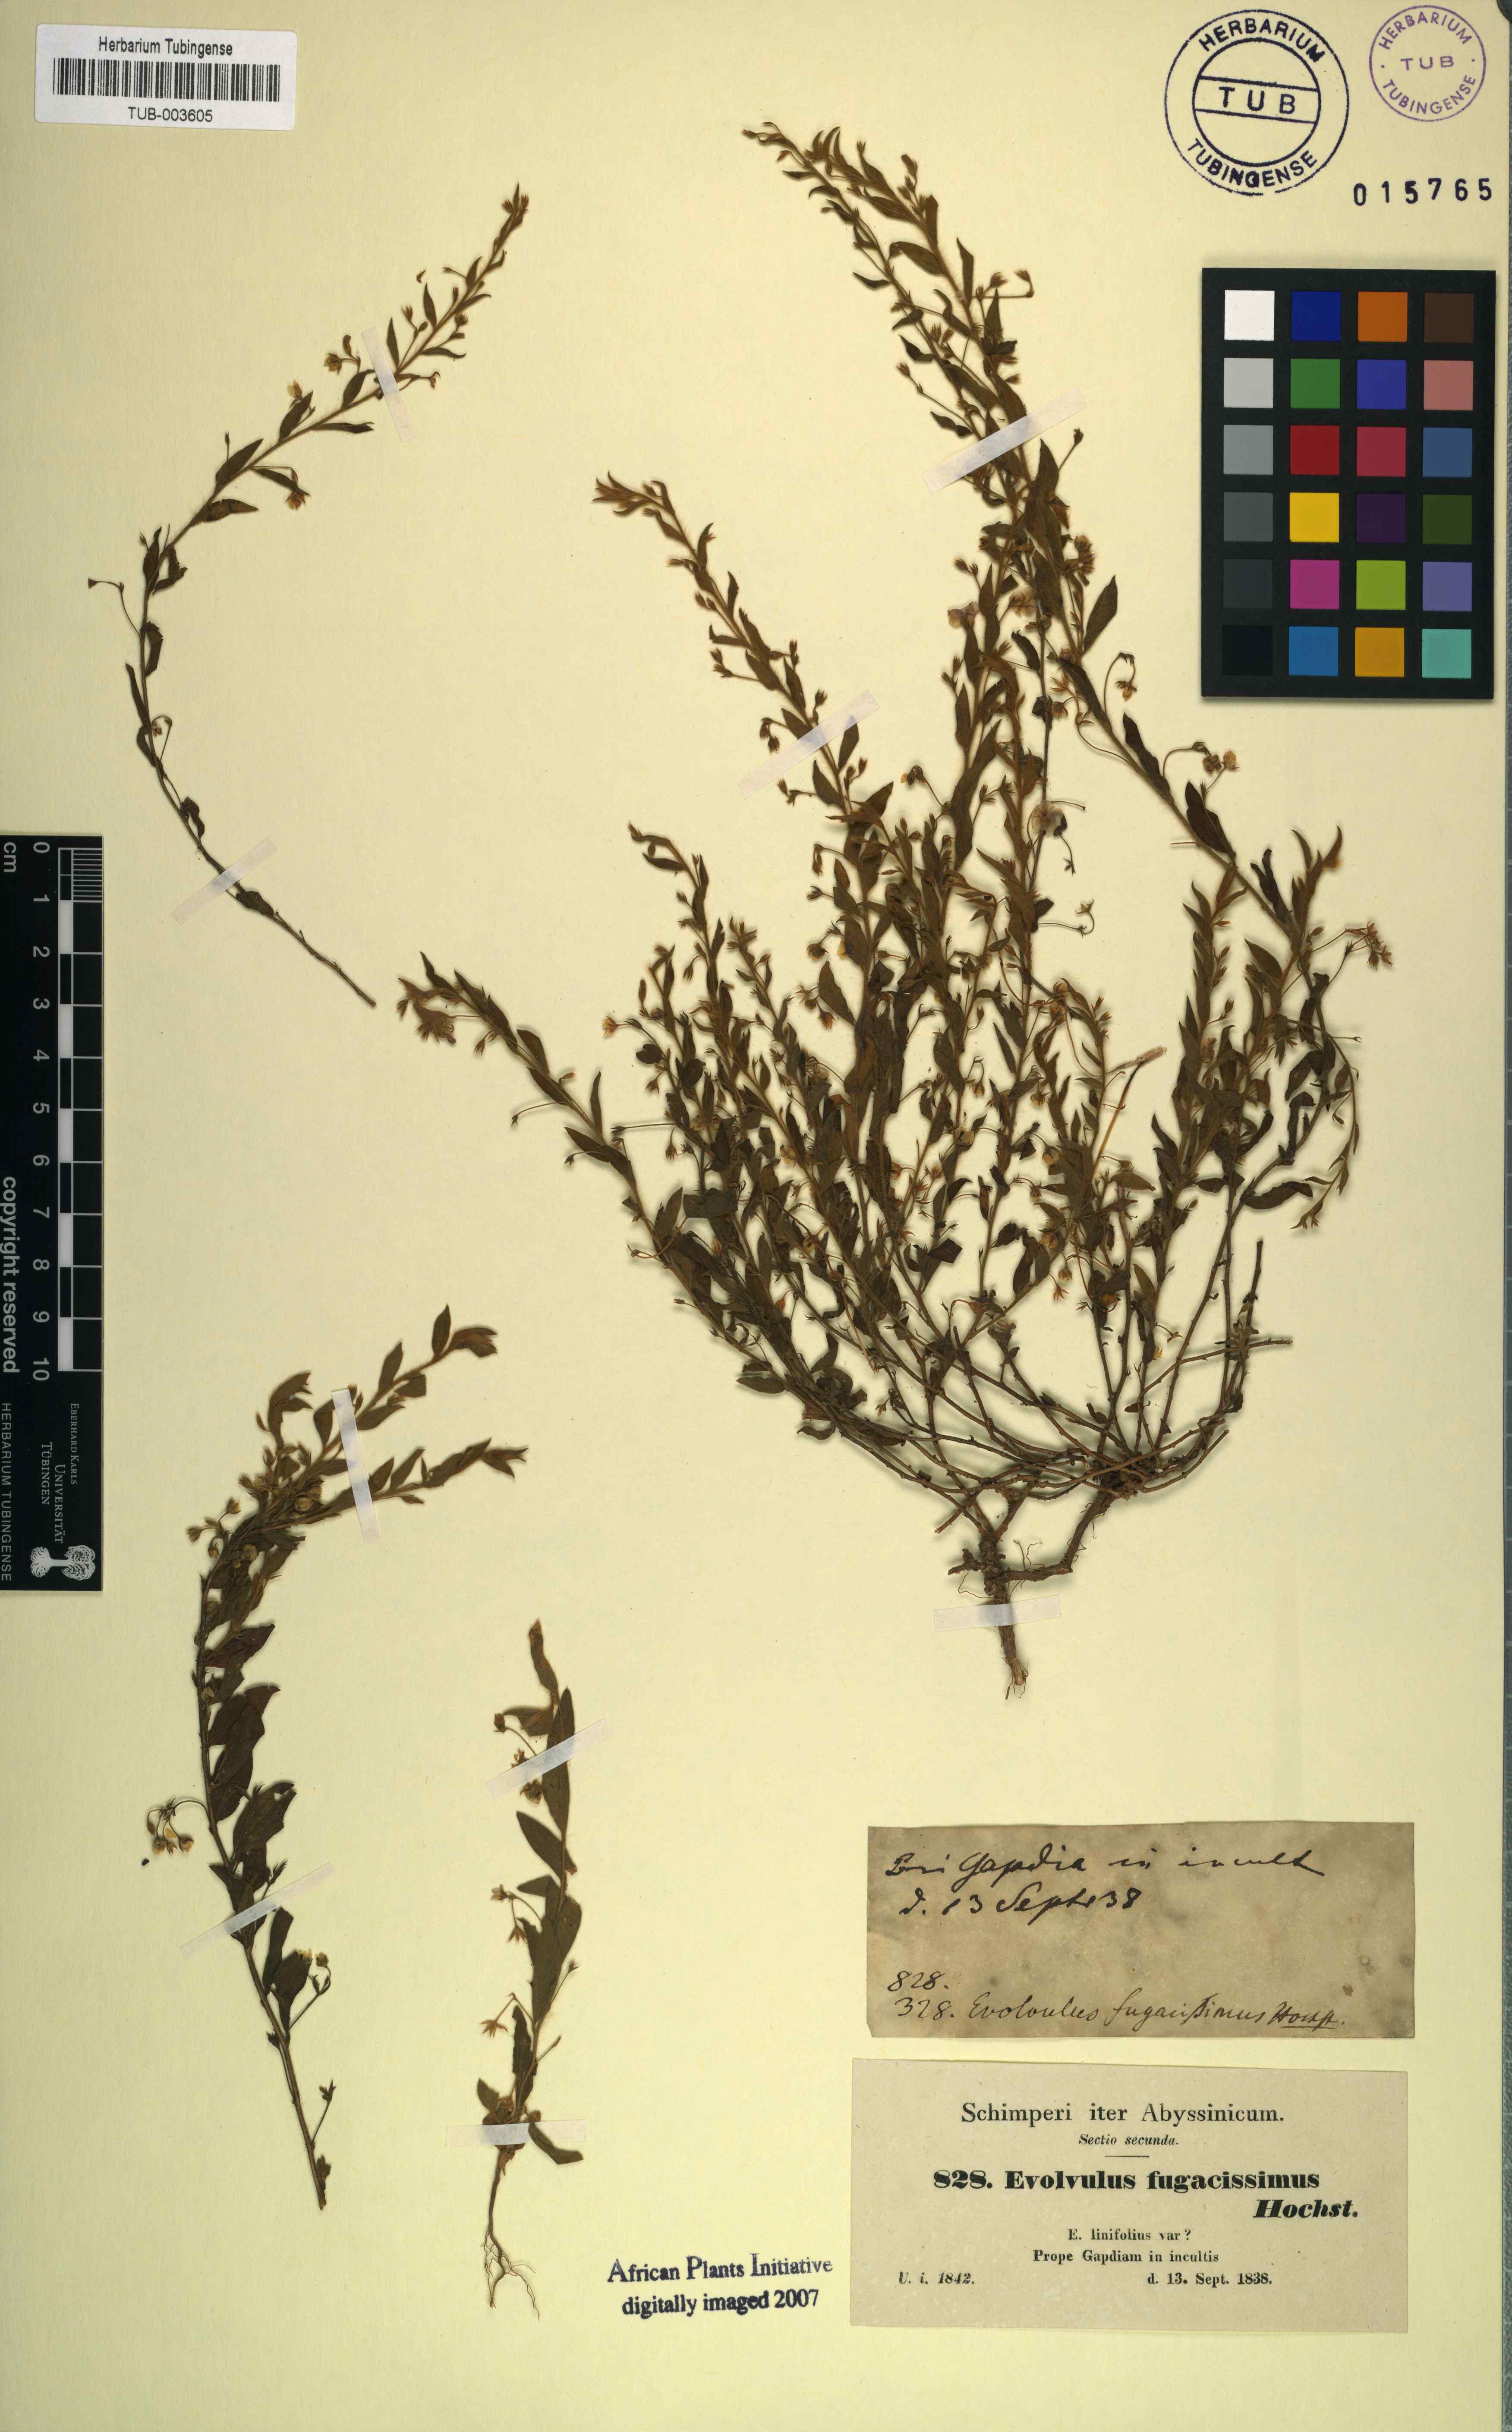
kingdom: Plantae
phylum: Tracheophyta
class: Magnoliopsida
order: Solanales
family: Convolvulaceae
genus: Evolvulus
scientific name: Evolvulus alsinoides
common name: Slender dwarf morning-glory
